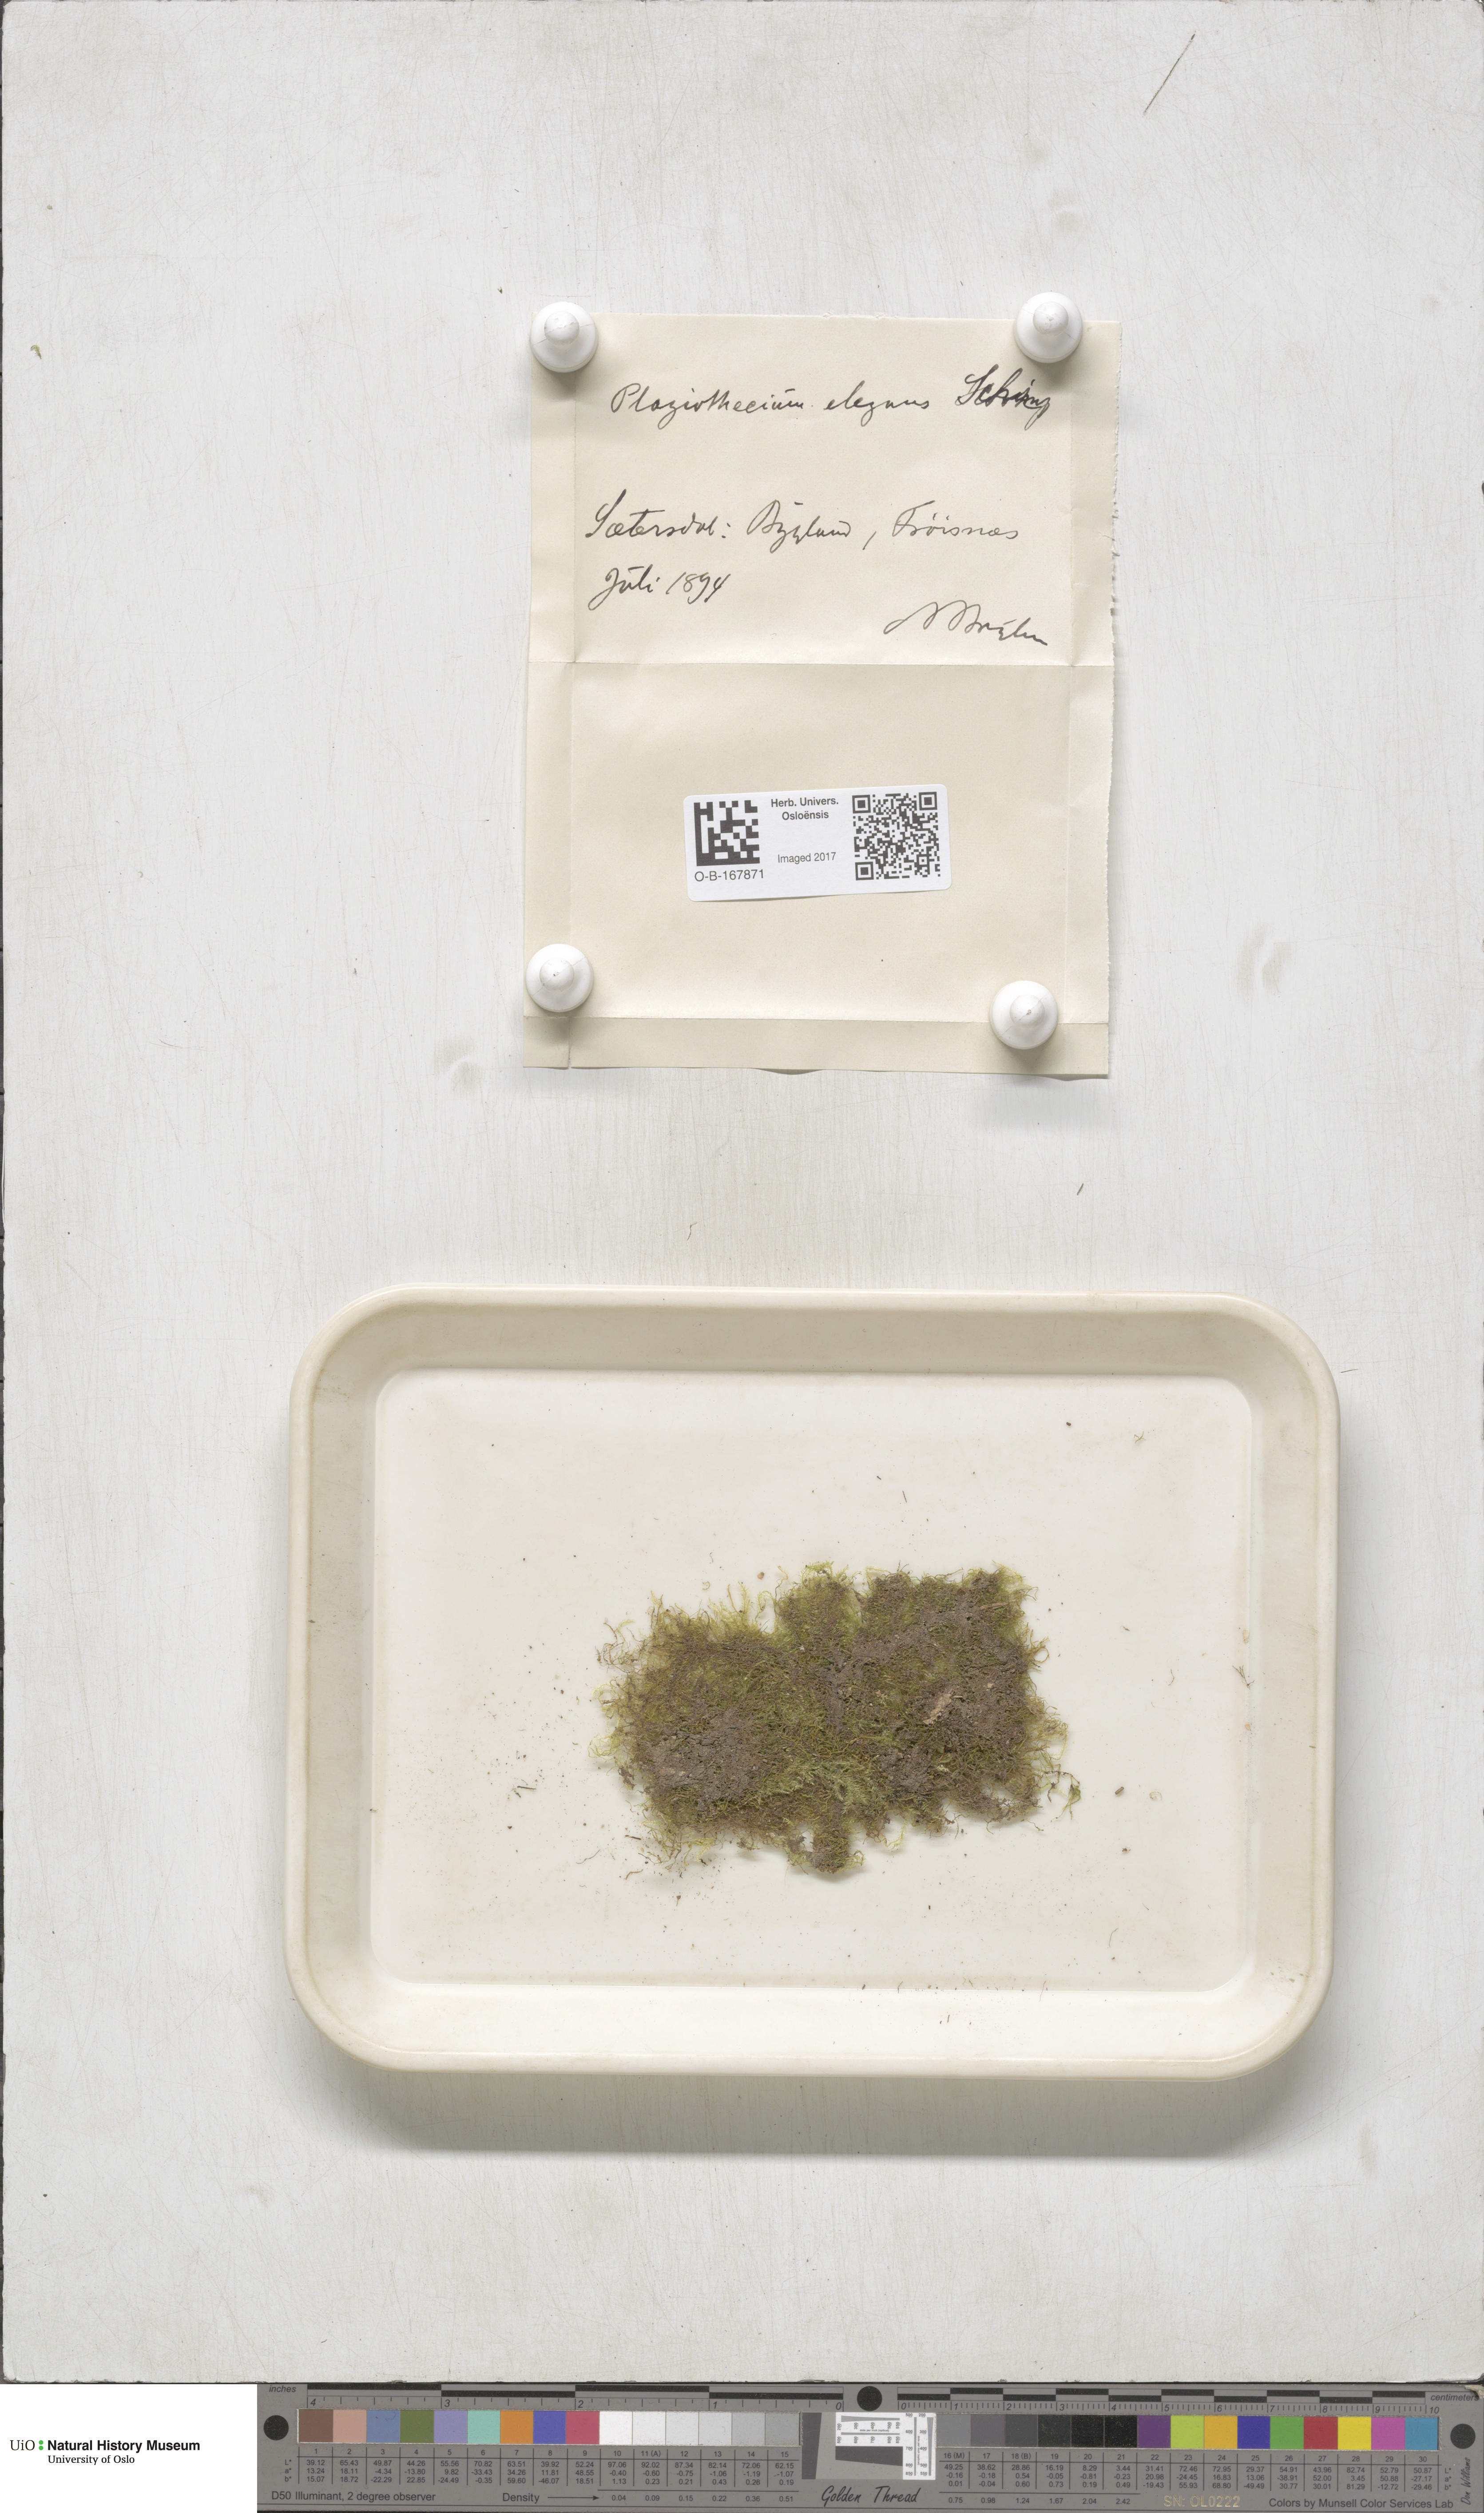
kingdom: Plantae
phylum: Bryophyta
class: Bryopsida
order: Hypnales
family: Plagiotheciaceae
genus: Pseudotaxiphyllum
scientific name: Pseudotaxiphyllum elegans
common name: Elegant silk moss
